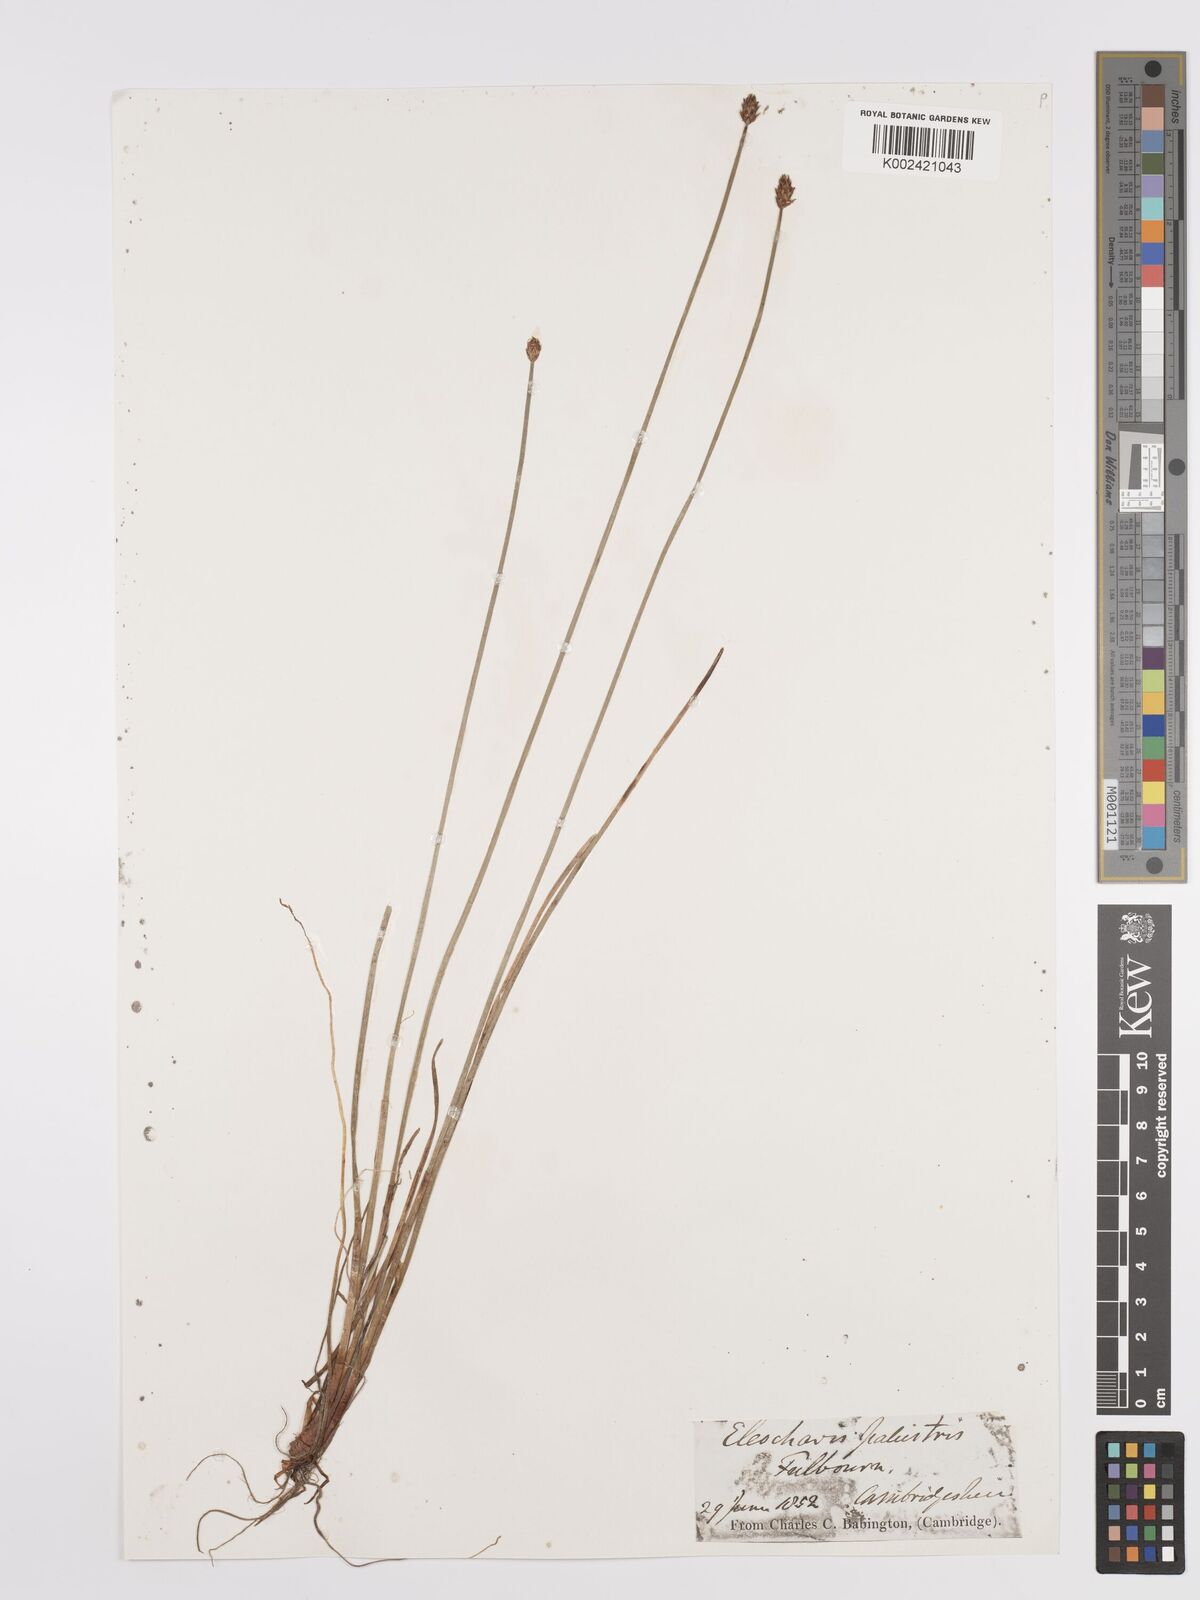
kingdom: Plantae
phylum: Tracheophyta
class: Liliopsida
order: Poales
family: Cyperaceae
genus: Eleocharis
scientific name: Eleocharis palustris
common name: Common spike-rush
